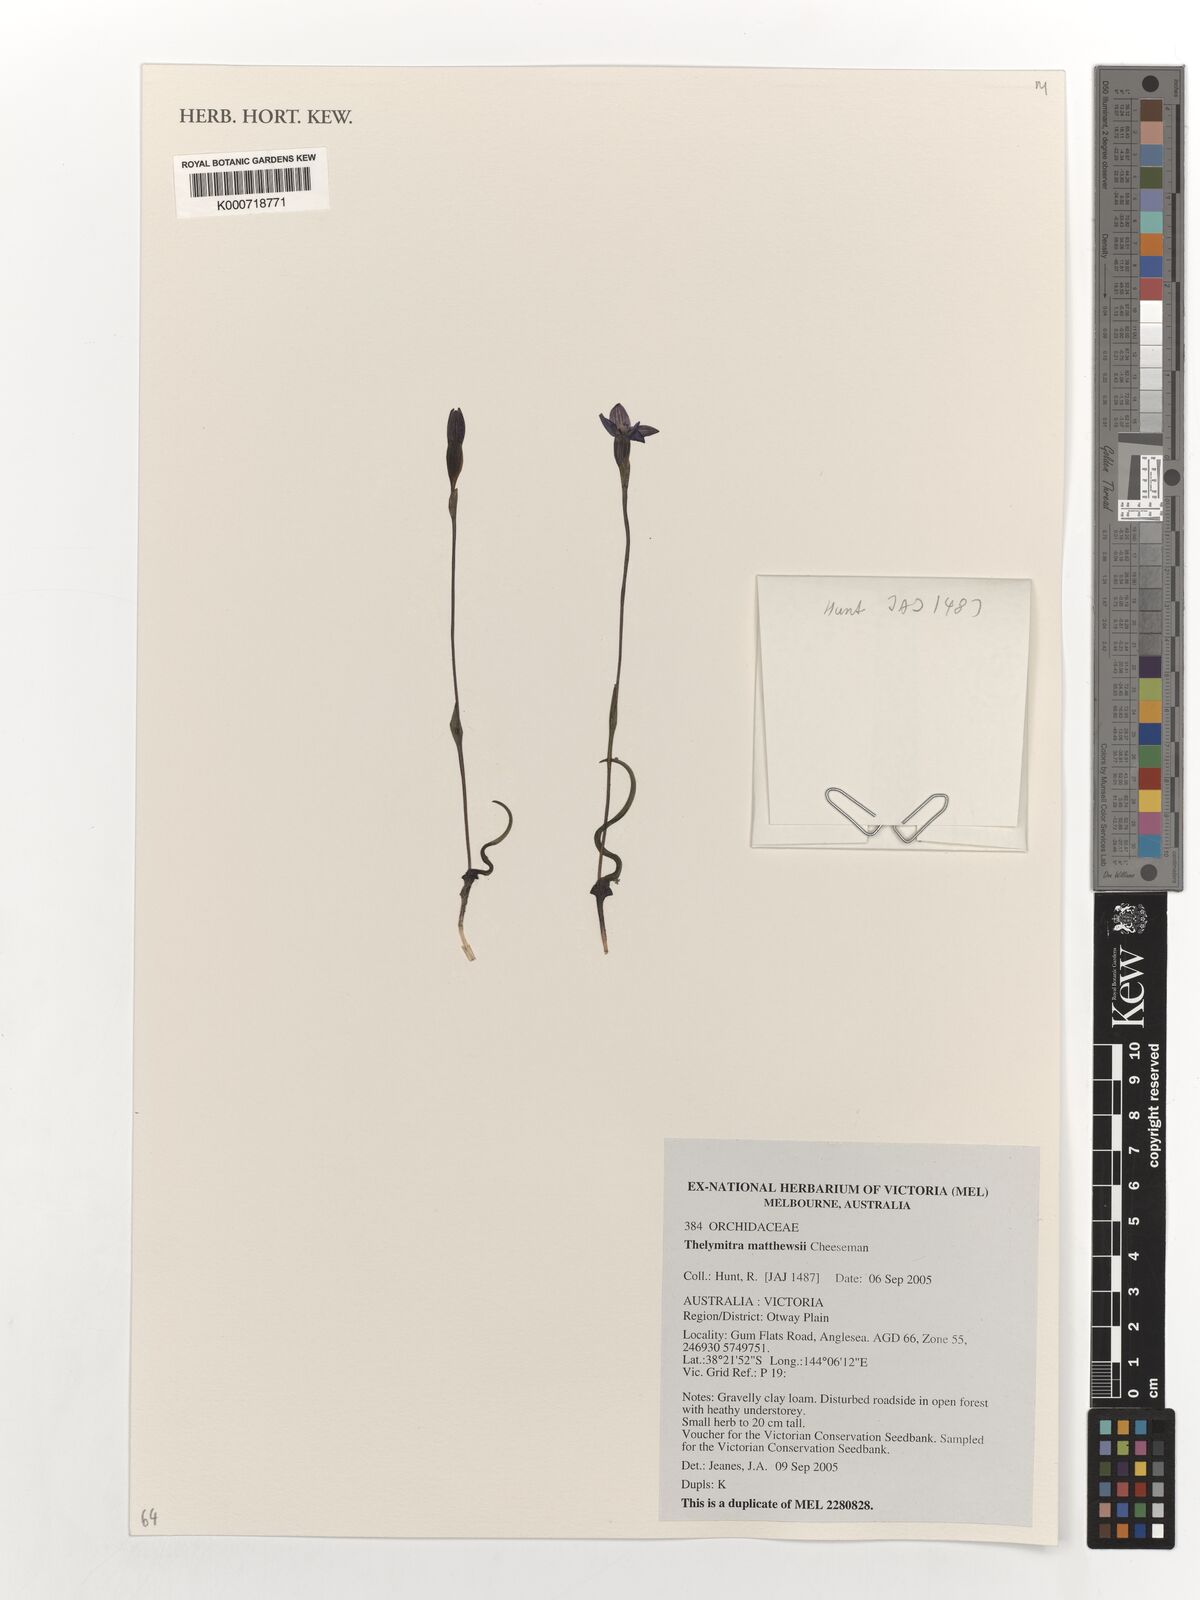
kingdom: Plantae
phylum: Tracheophyta
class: Liliopsida
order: Asparagales
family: Orchidaceae
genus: Thelymitra
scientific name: Thelymitra matthewsii
